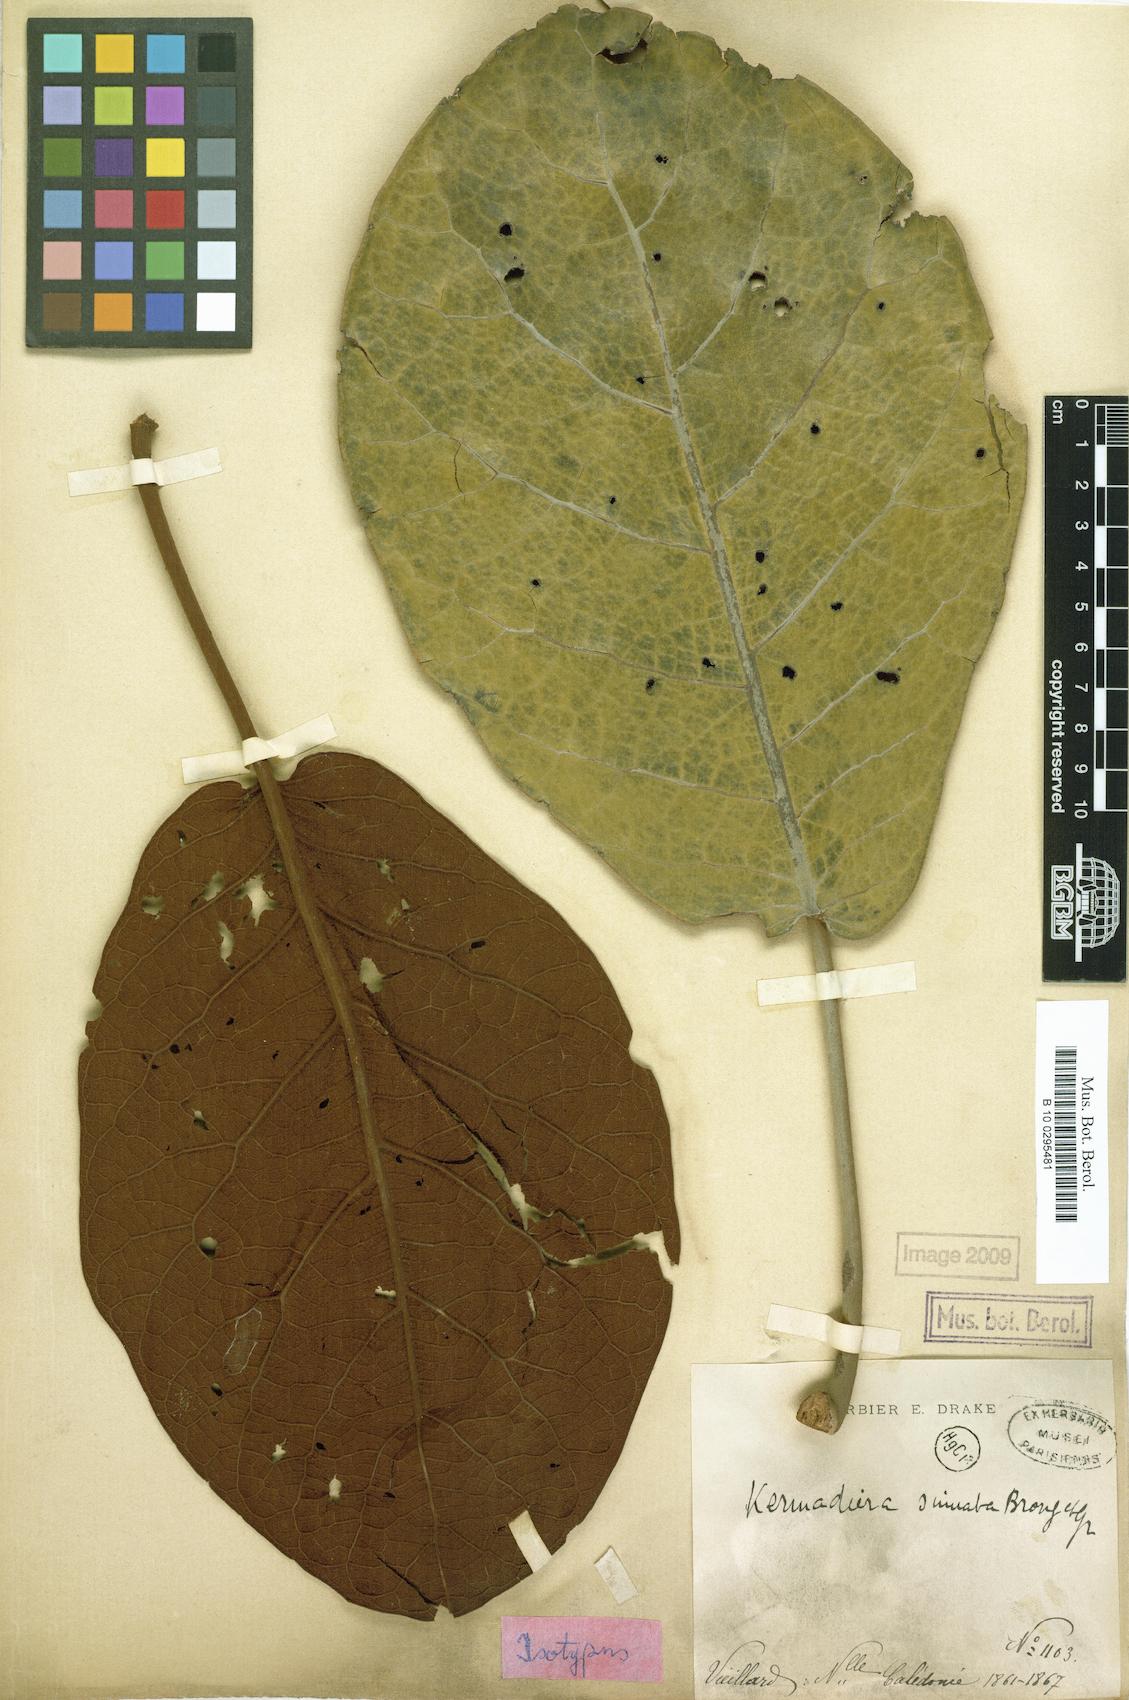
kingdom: Plantae
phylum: Tracheophyta
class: Magnoliopsida
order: Proteales
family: Proteaceae
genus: Kermadecia
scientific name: Kermadecia sinuata
